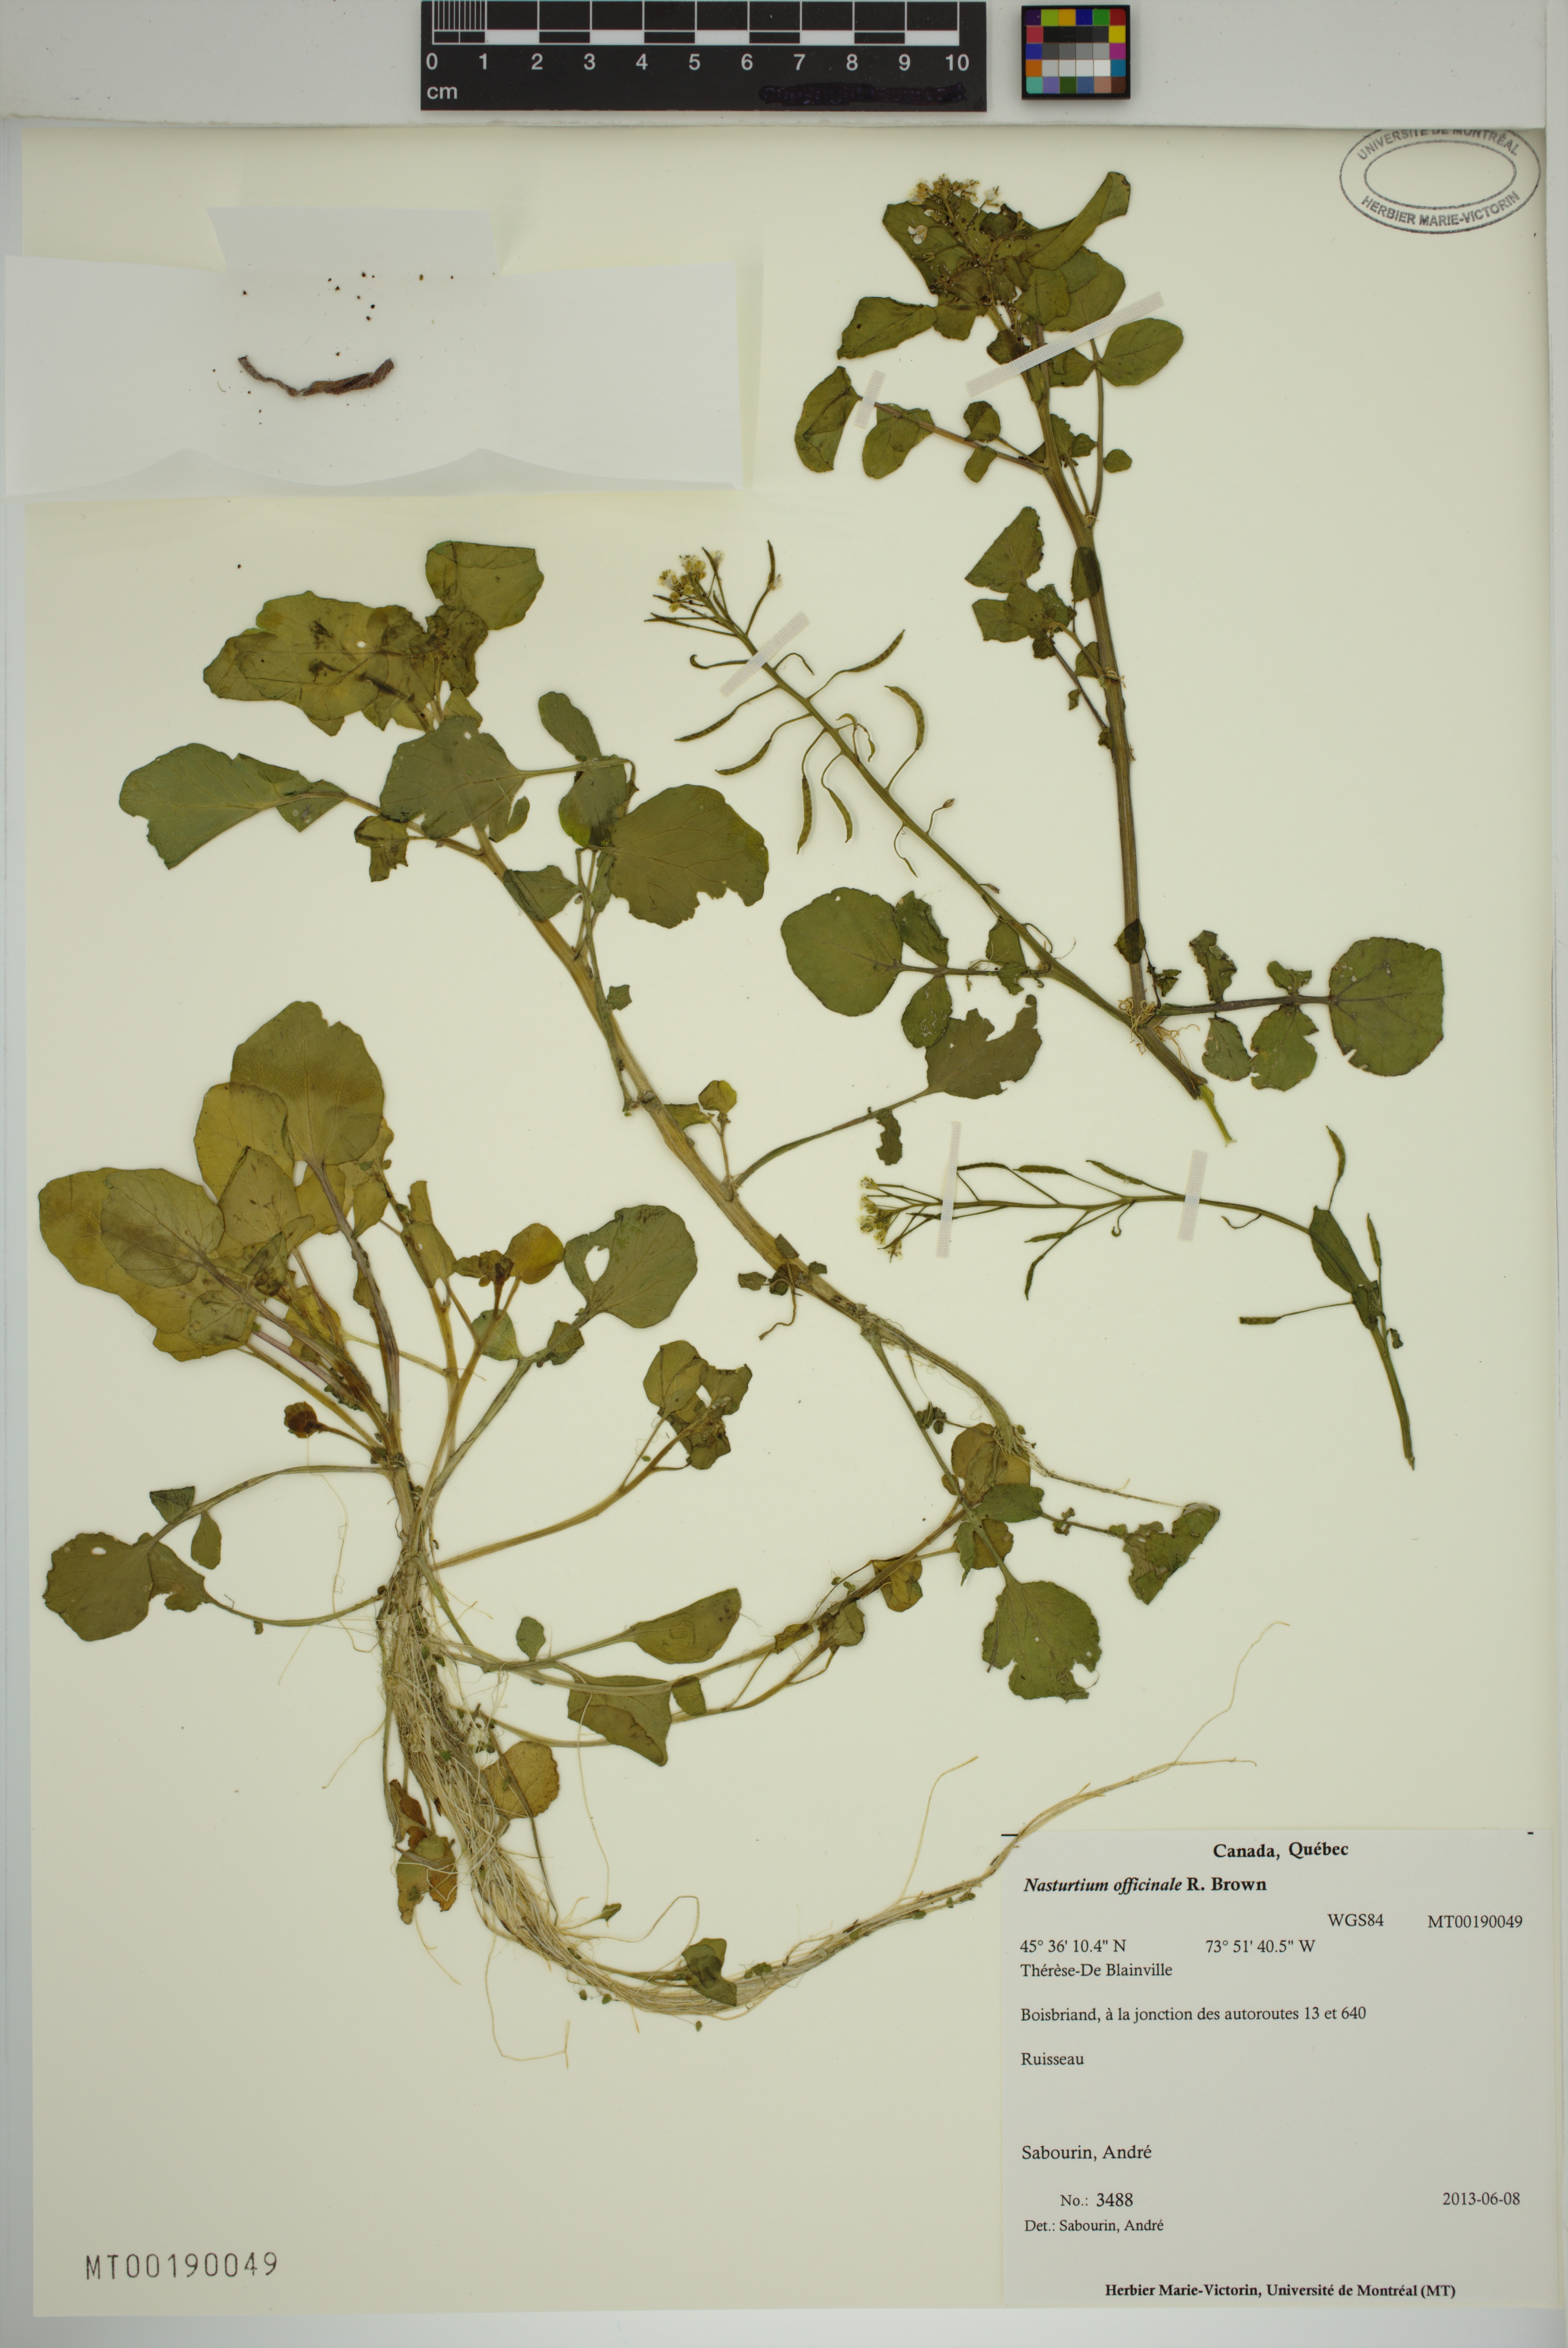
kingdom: Plantae
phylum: Tracheophyta
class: Magnoliopsida
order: Brassicales
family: Brassicaceae
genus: Nasturtium
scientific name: Nasturtium officinale
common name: Watercress
